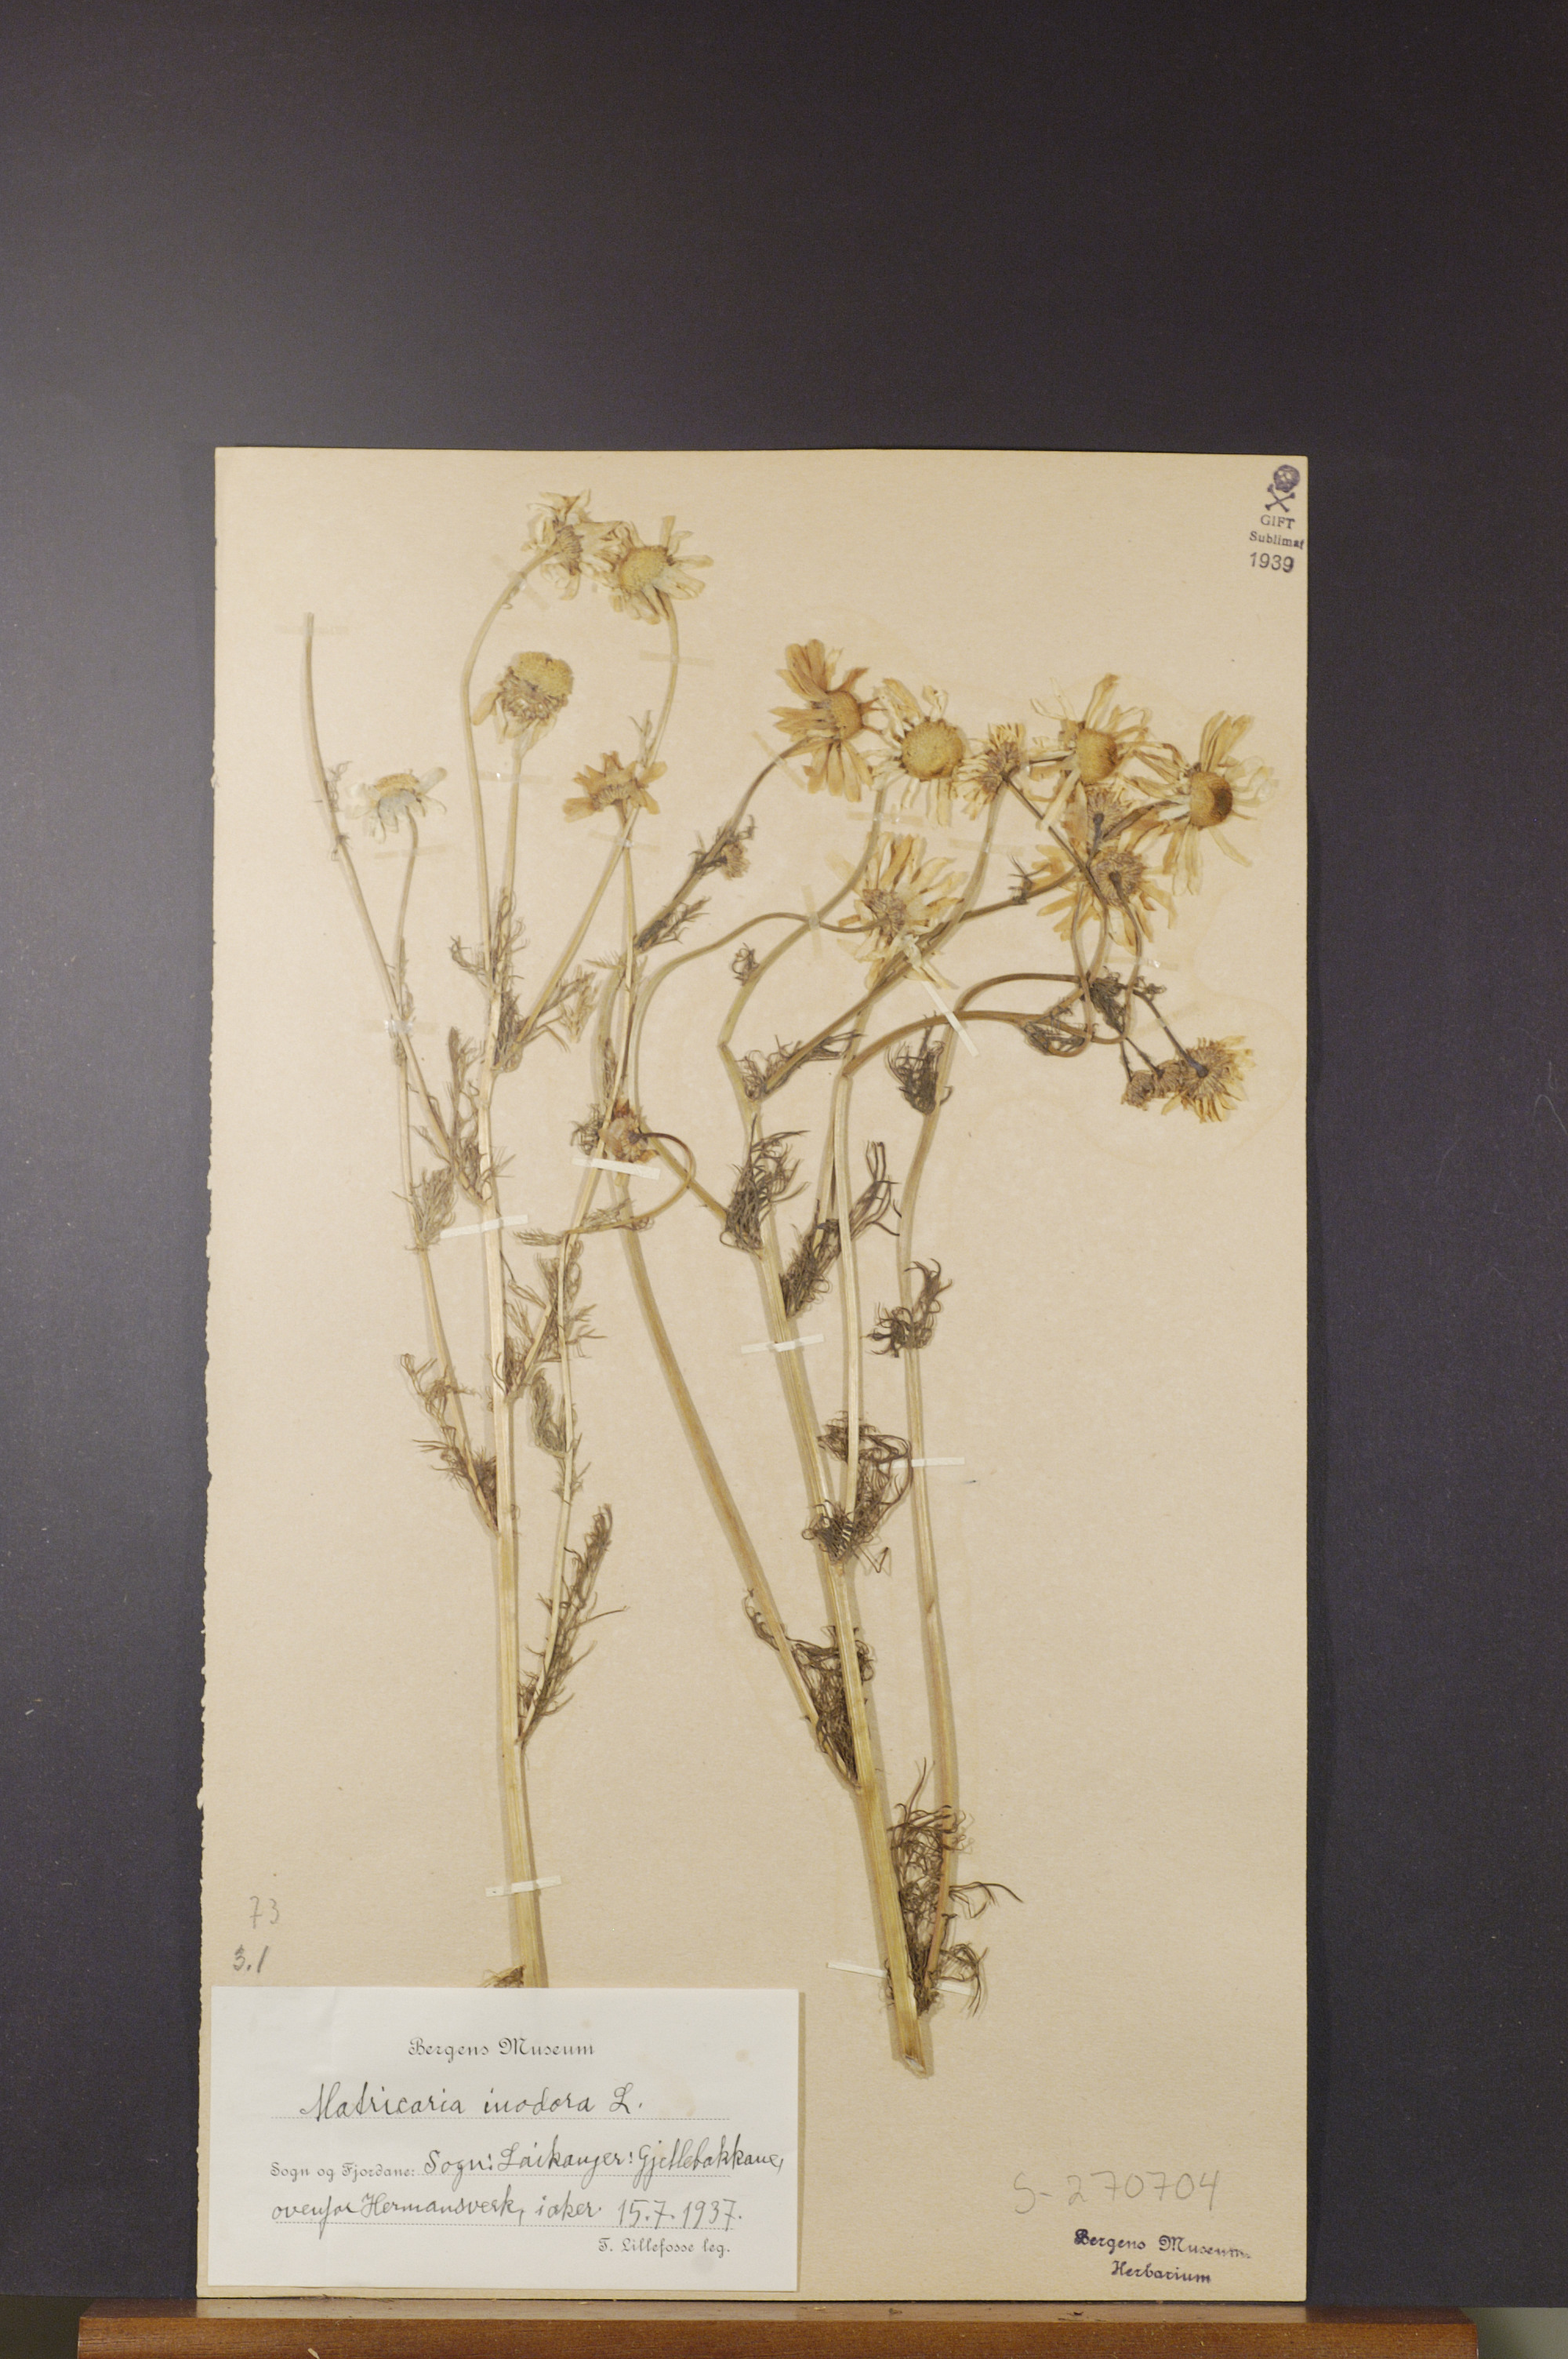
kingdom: Plantae
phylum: Tracheophyta
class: Magnoliopsida
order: Asterales
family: Asteraceae
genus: Tripleurospermum
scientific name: Tripleurospermum inodorum
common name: Scentless mayweed
